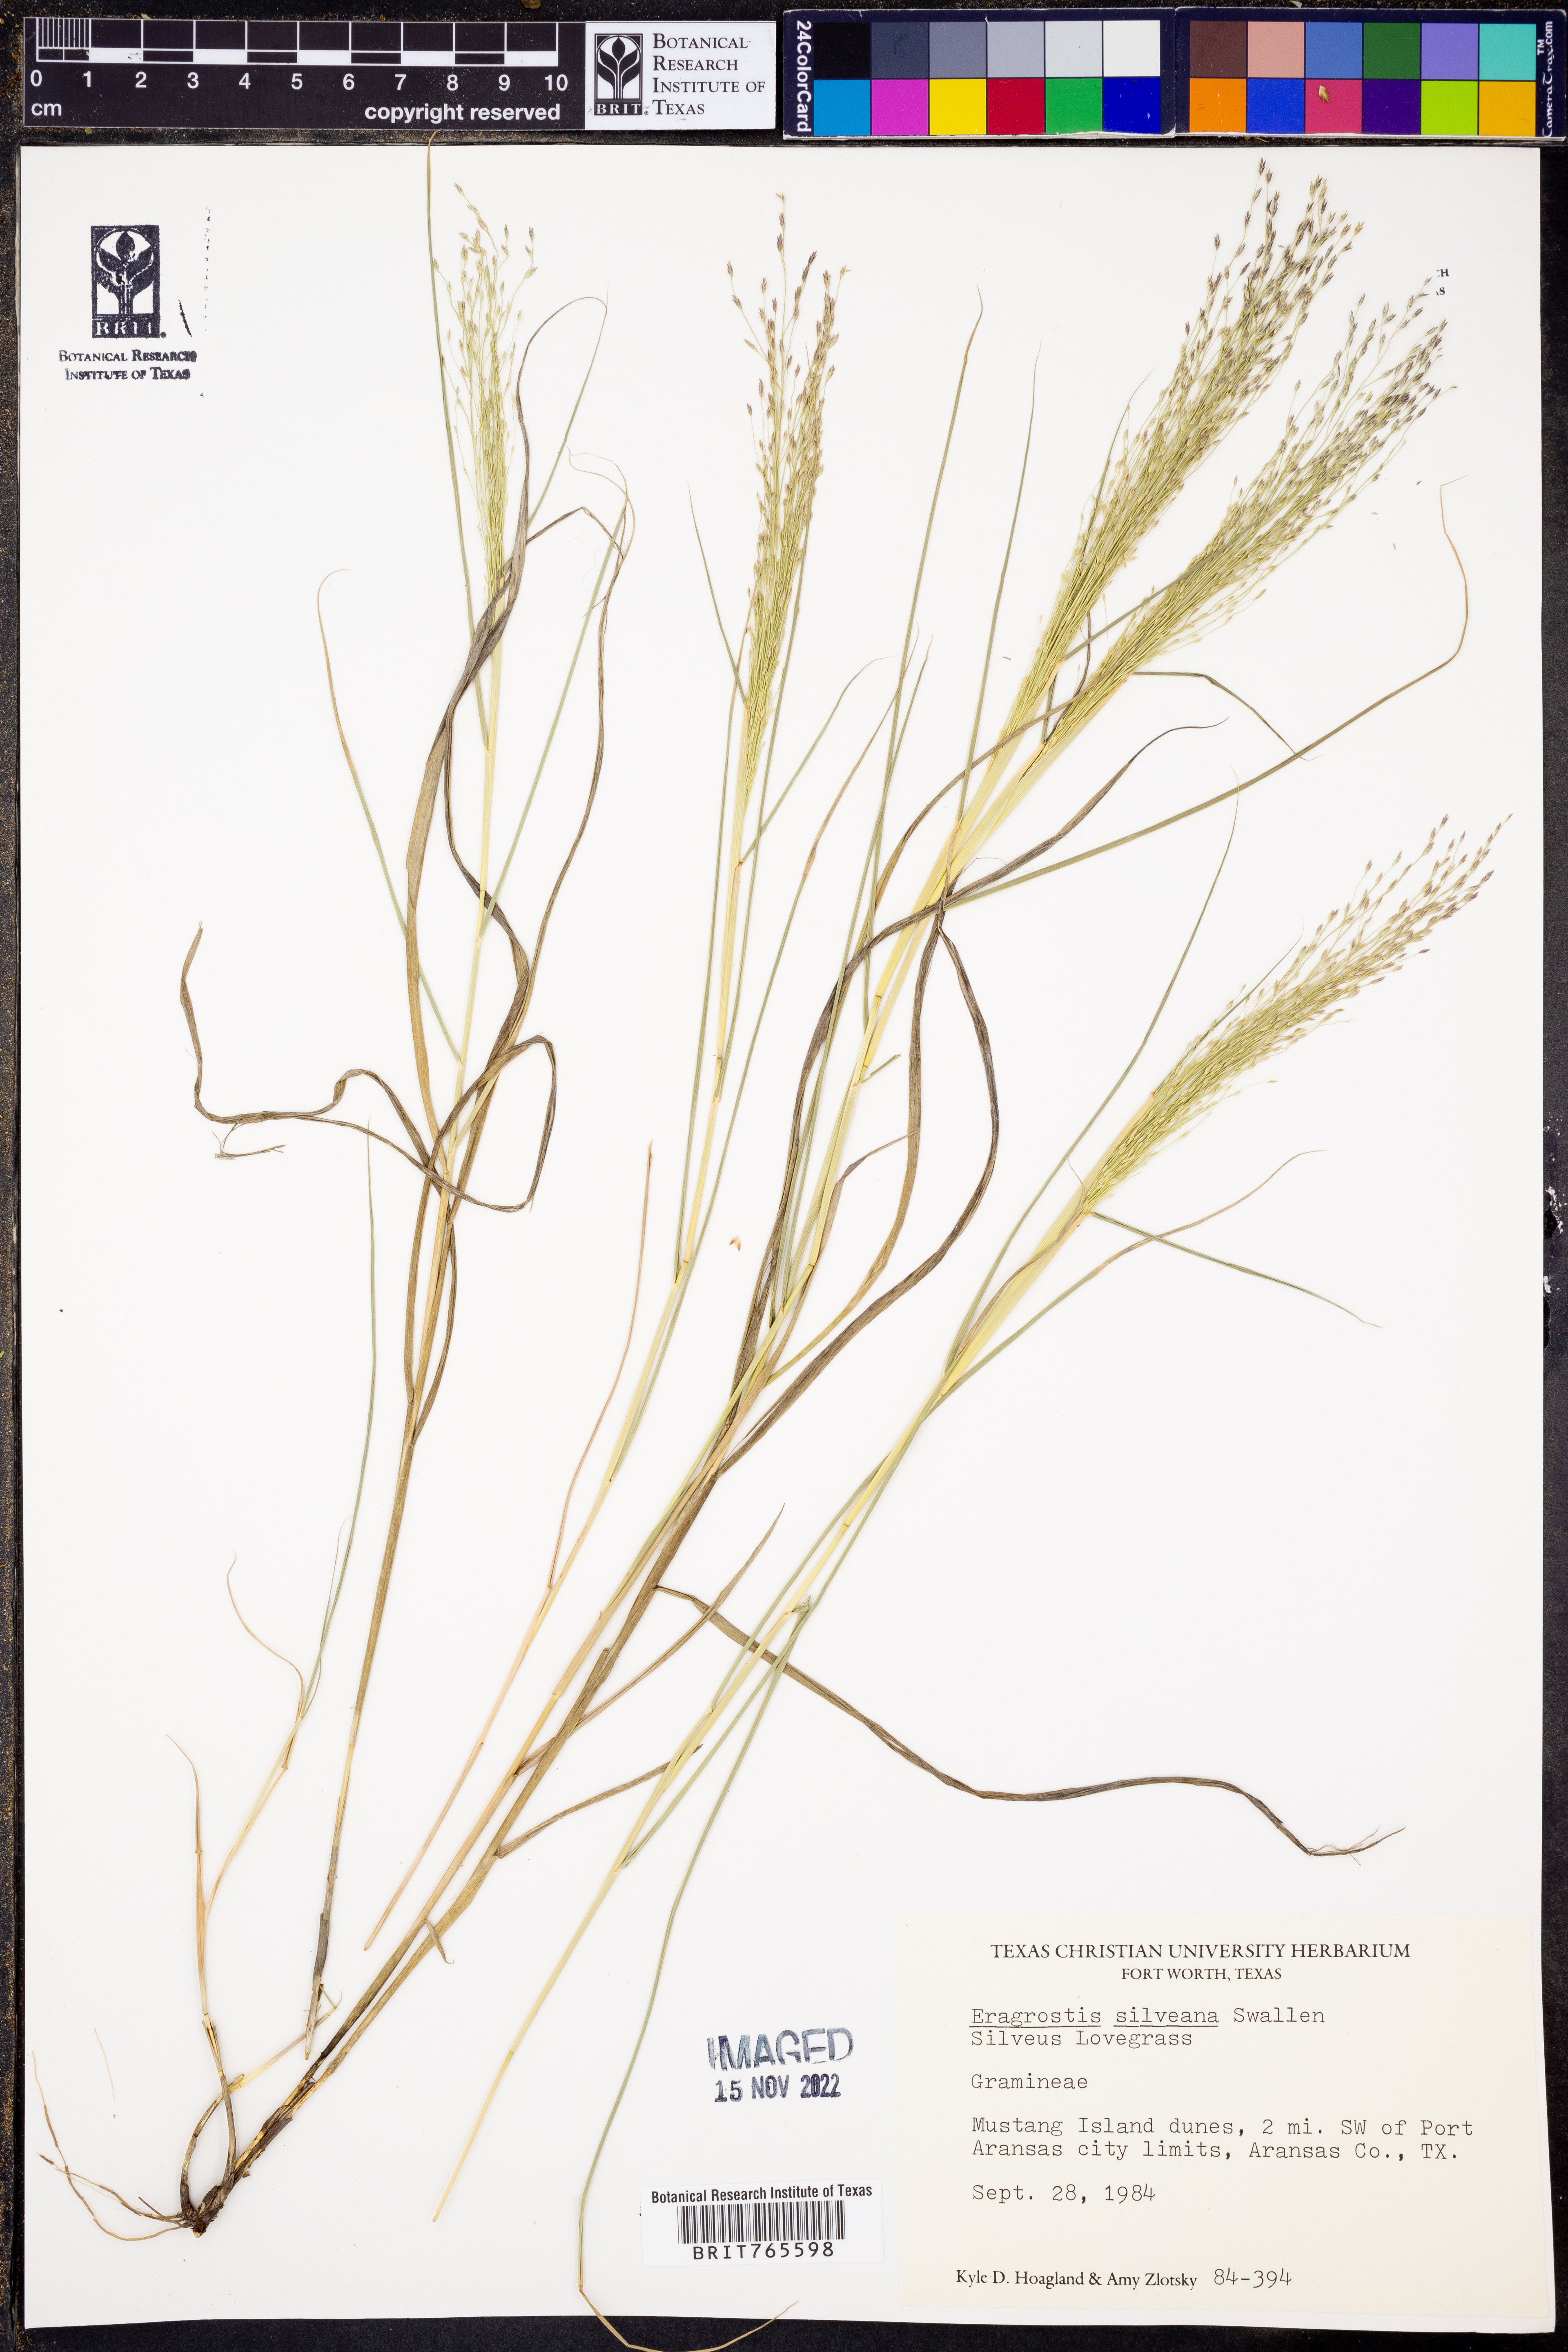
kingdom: Plantae
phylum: Tracheophyta
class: Liliopsida
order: Poales
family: Poaceae
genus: Eragrostis
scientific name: Eragrostis silveana
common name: Silveus' lovegrass
